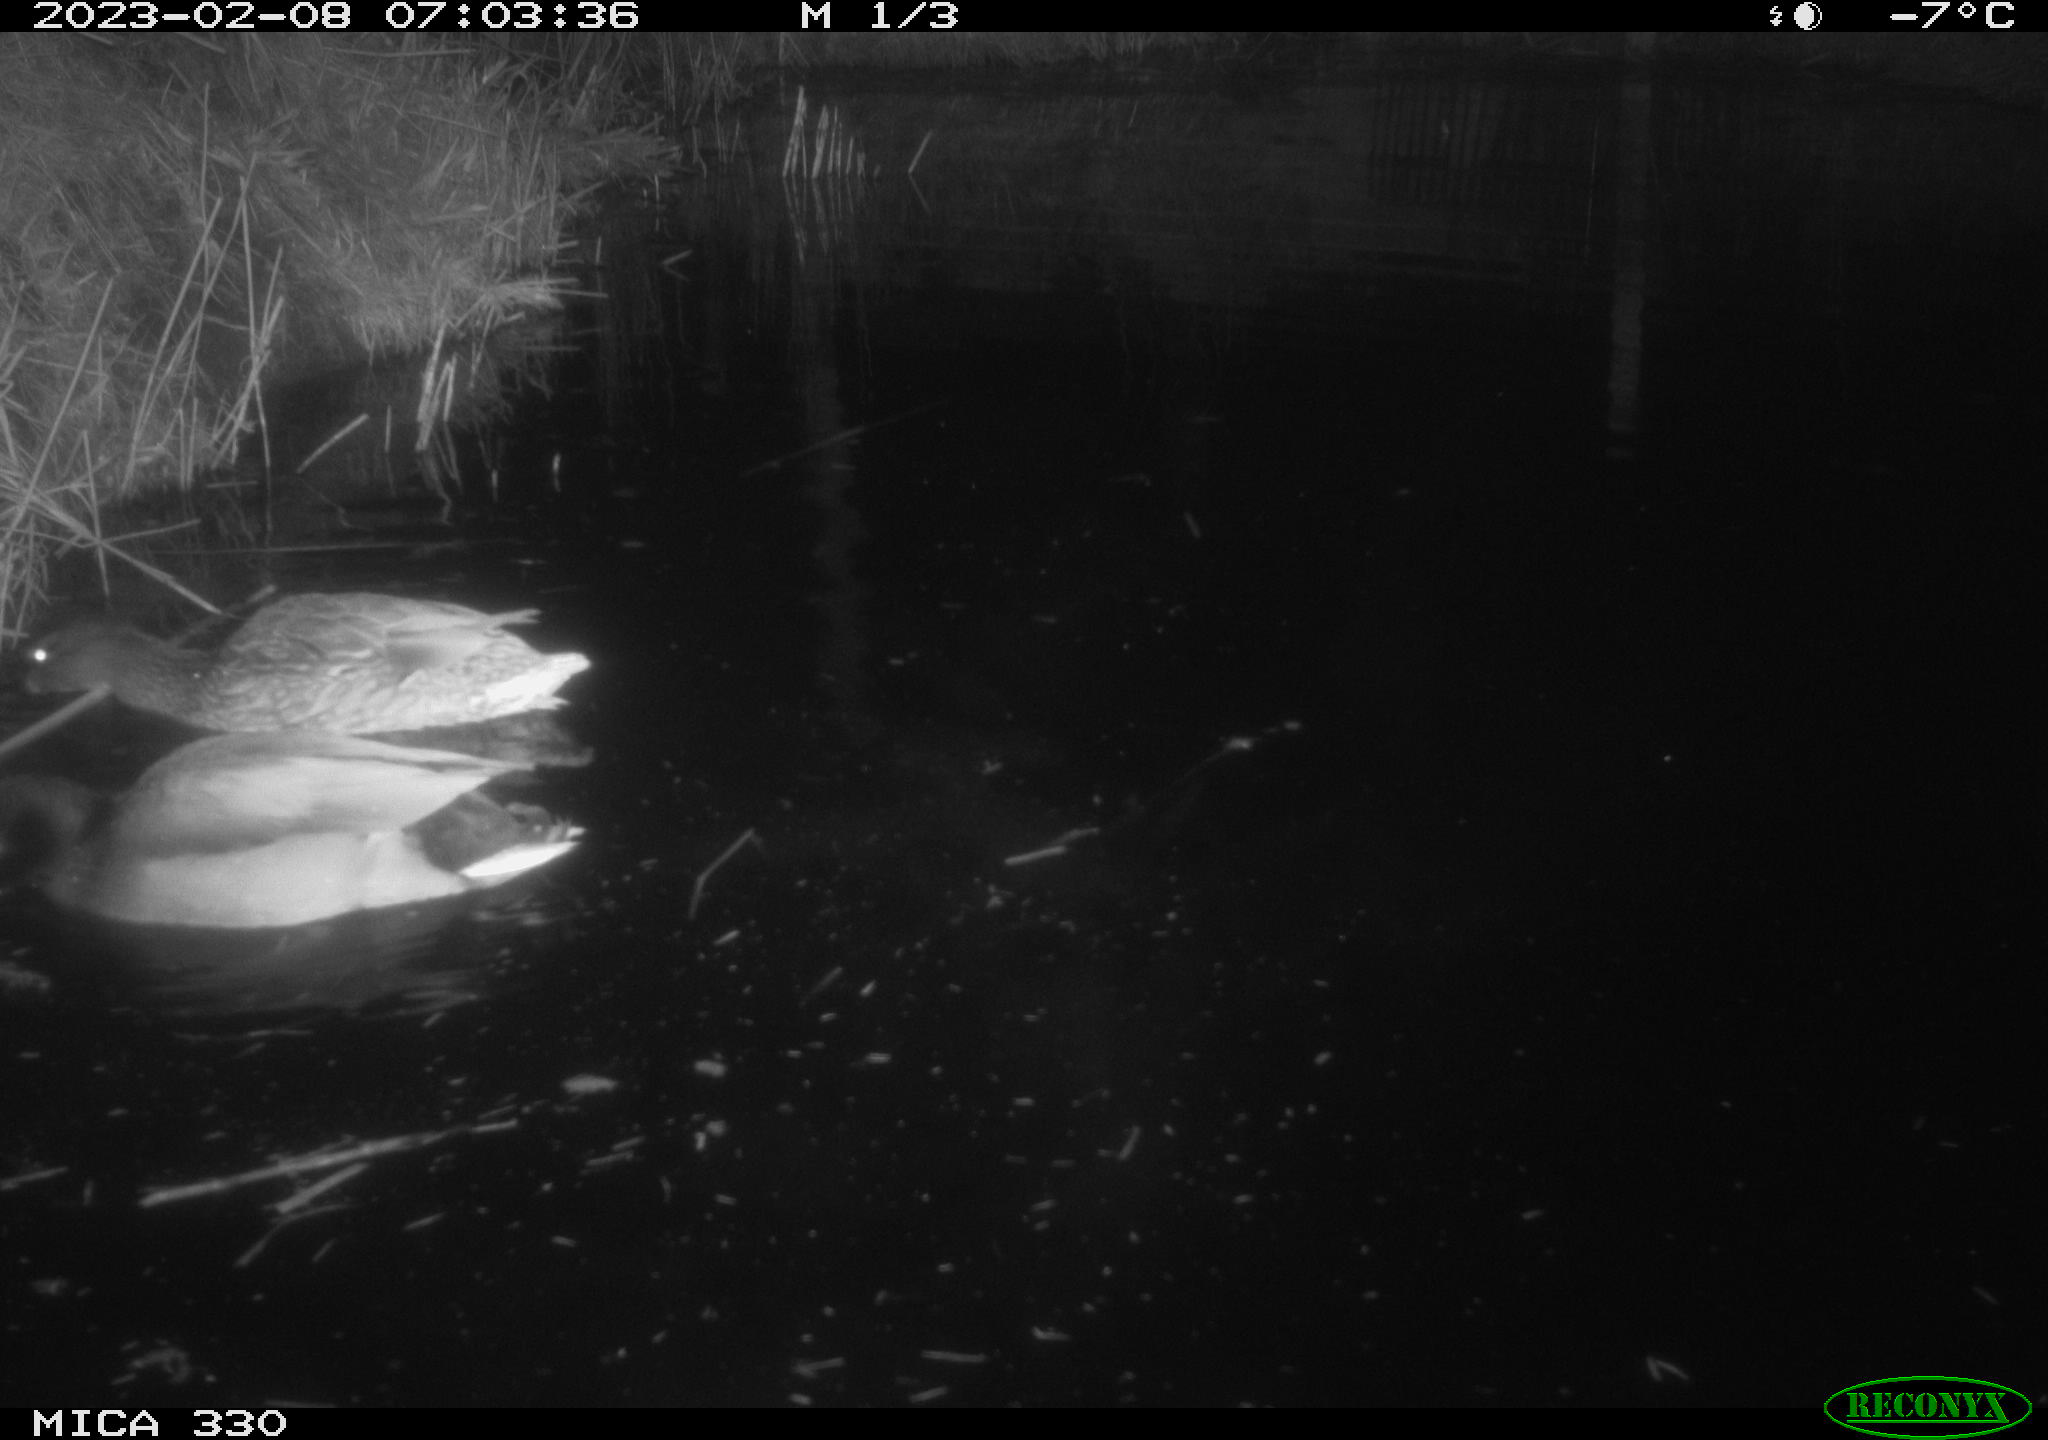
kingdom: Animalia
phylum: Chordata
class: Aves
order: Anseriformes
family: Anatidae
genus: Anas
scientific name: Anas
